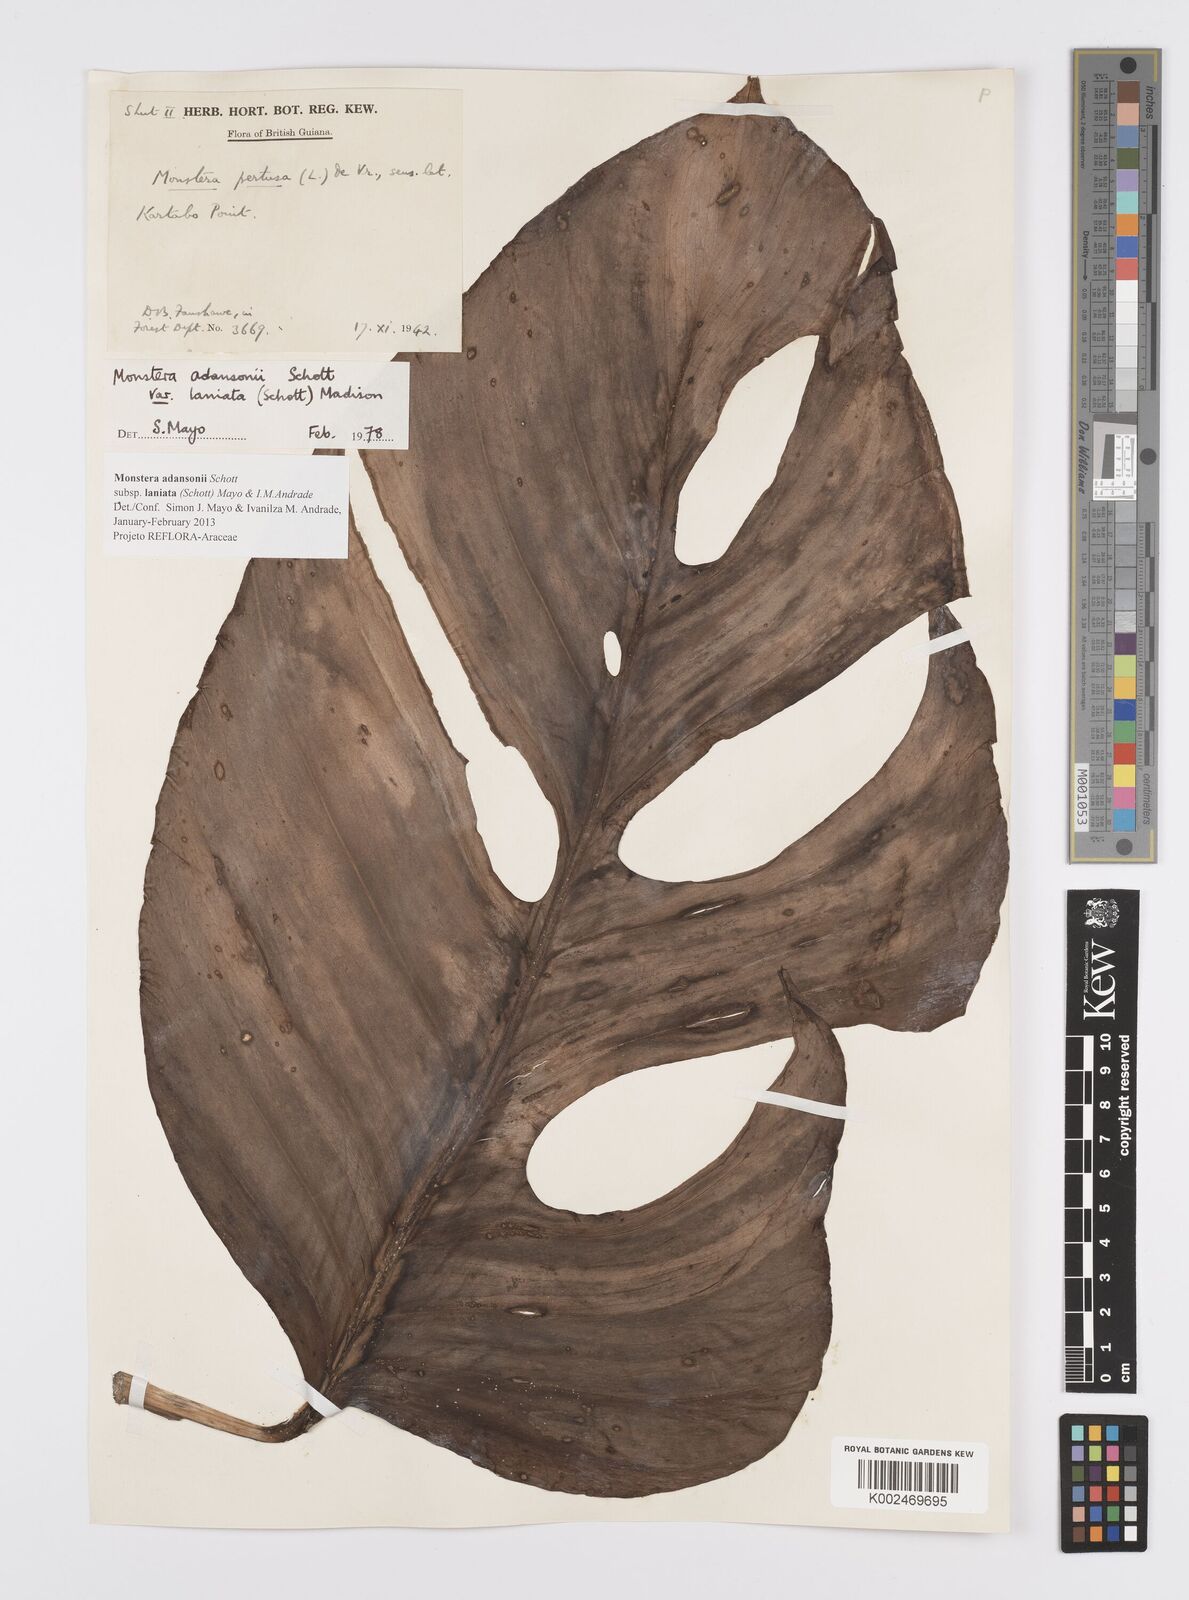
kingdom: Plantae
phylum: Tracheophyta
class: Liliopsida
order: Alismatales
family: Araceae
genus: Monstera
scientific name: Monstera adansonii
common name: Tarovine
